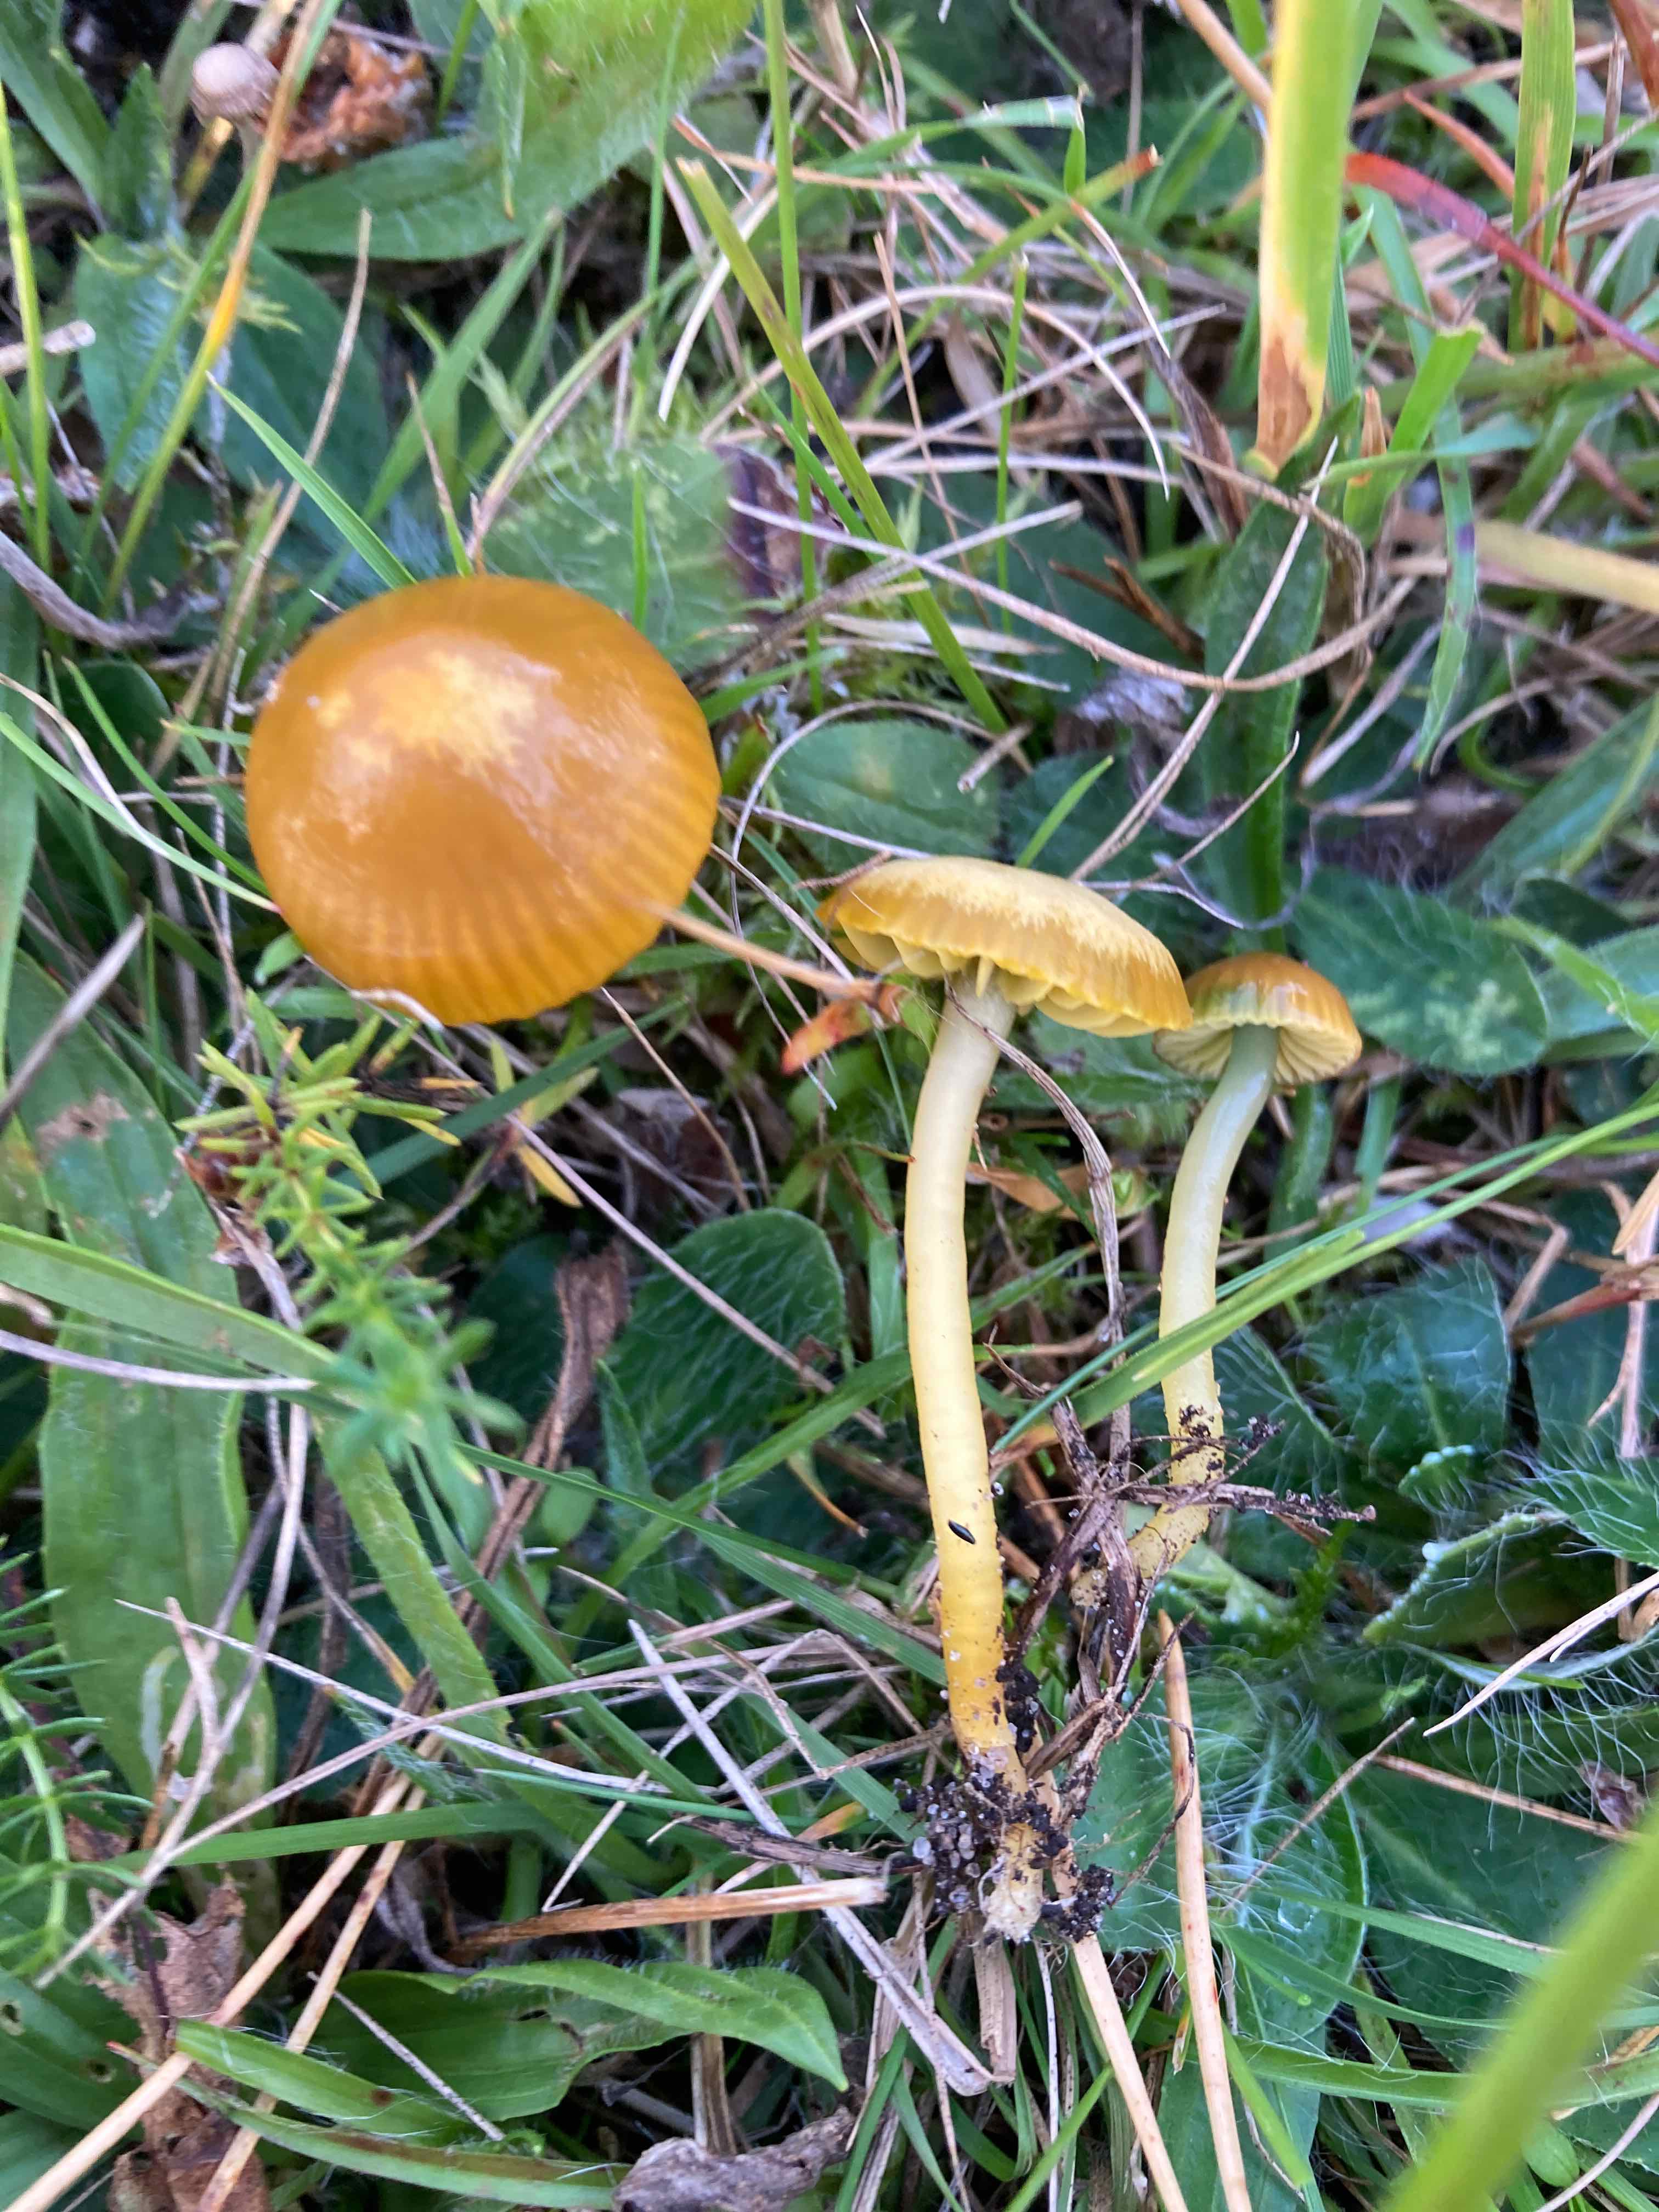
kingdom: Fungi
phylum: Basidiomycota
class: Agaricomycetes
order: Agaricales
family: Hygrophoraceae
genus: Gliophorus
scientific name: Gliophorus psittacinus
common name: papegøje-vokshat
